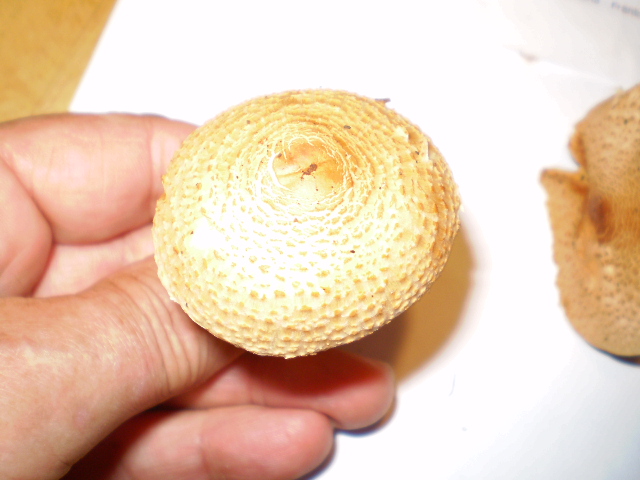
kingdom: Fungi
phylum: Basidiomycota
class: Agaricomycetes
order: Agaricales
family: Agaricaceae
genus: Lepiota
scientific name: Lepiota ochraceofulva
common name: sødtduftende parasolhat
